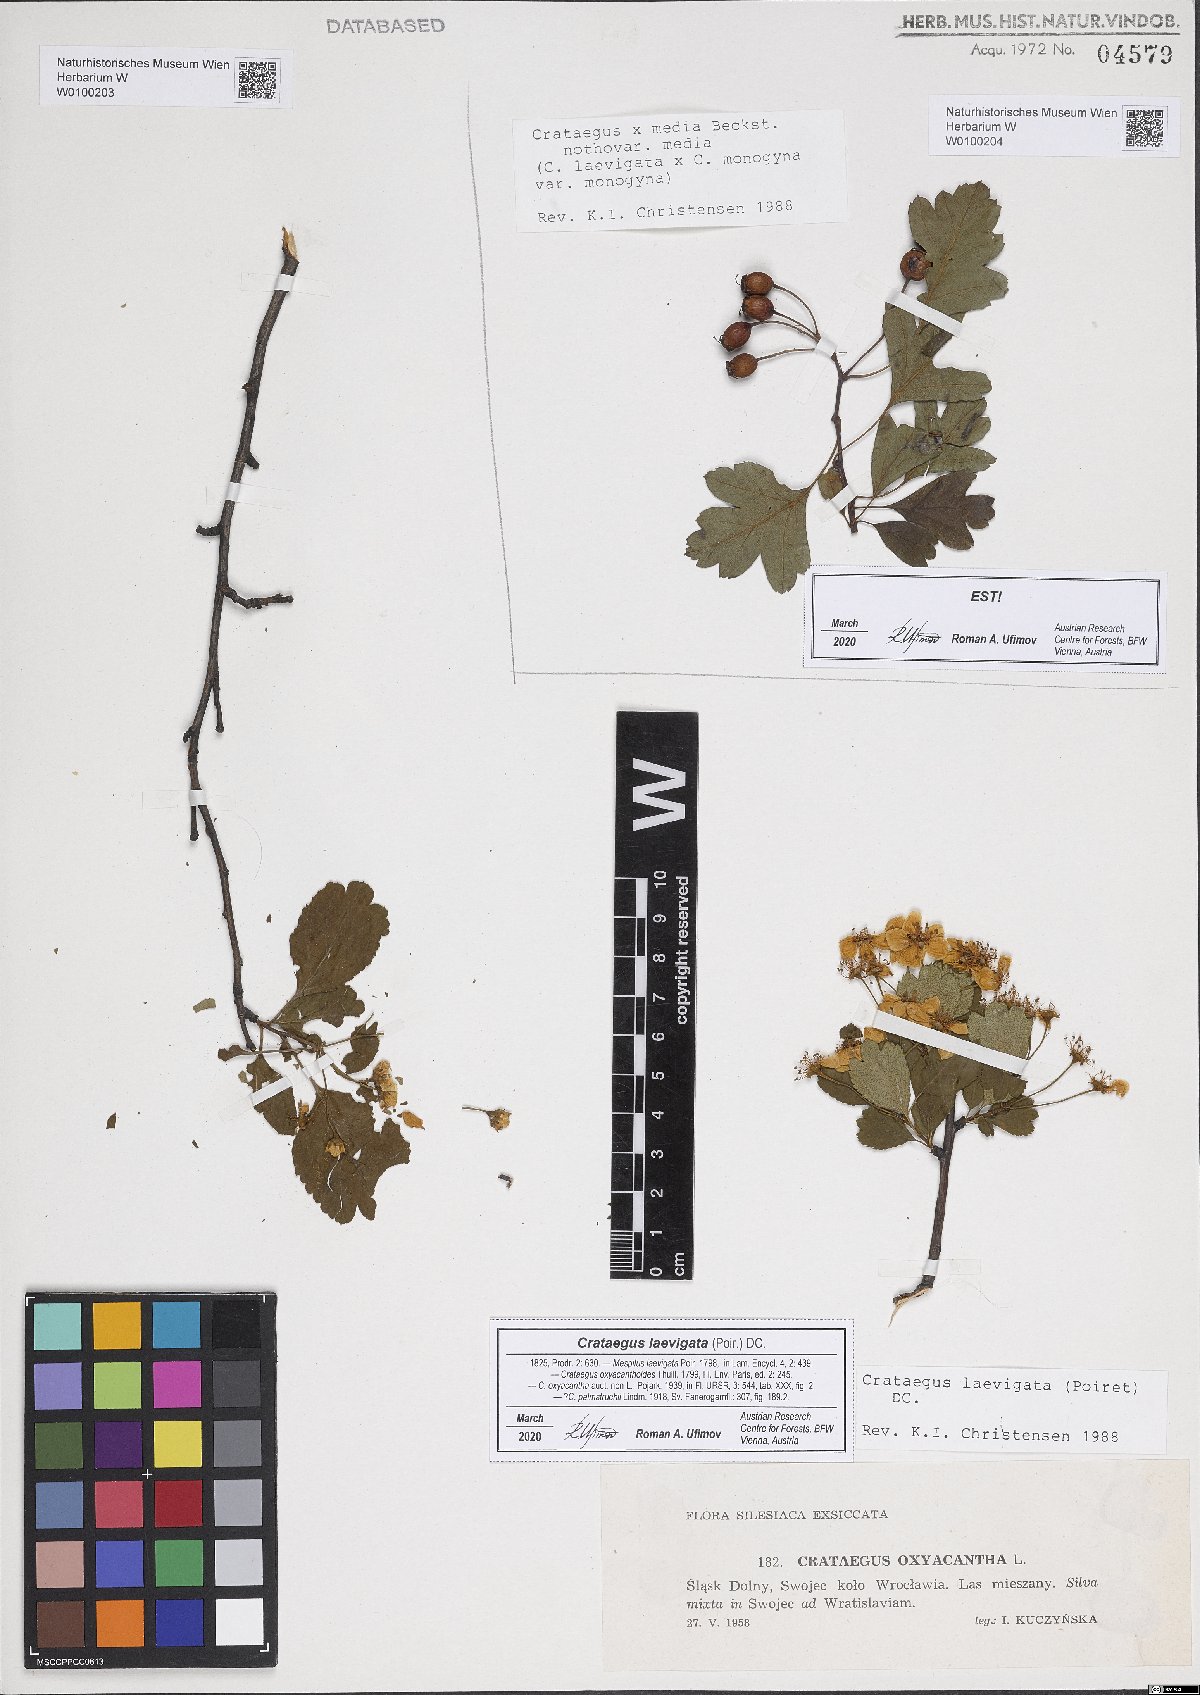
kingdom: Plantae
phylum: Tracheophyta
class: Magnoliopsida
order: Rosales
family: Rosaceae
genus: Crataegus
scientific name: Crataegus media
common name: Intermediate hawthorn
